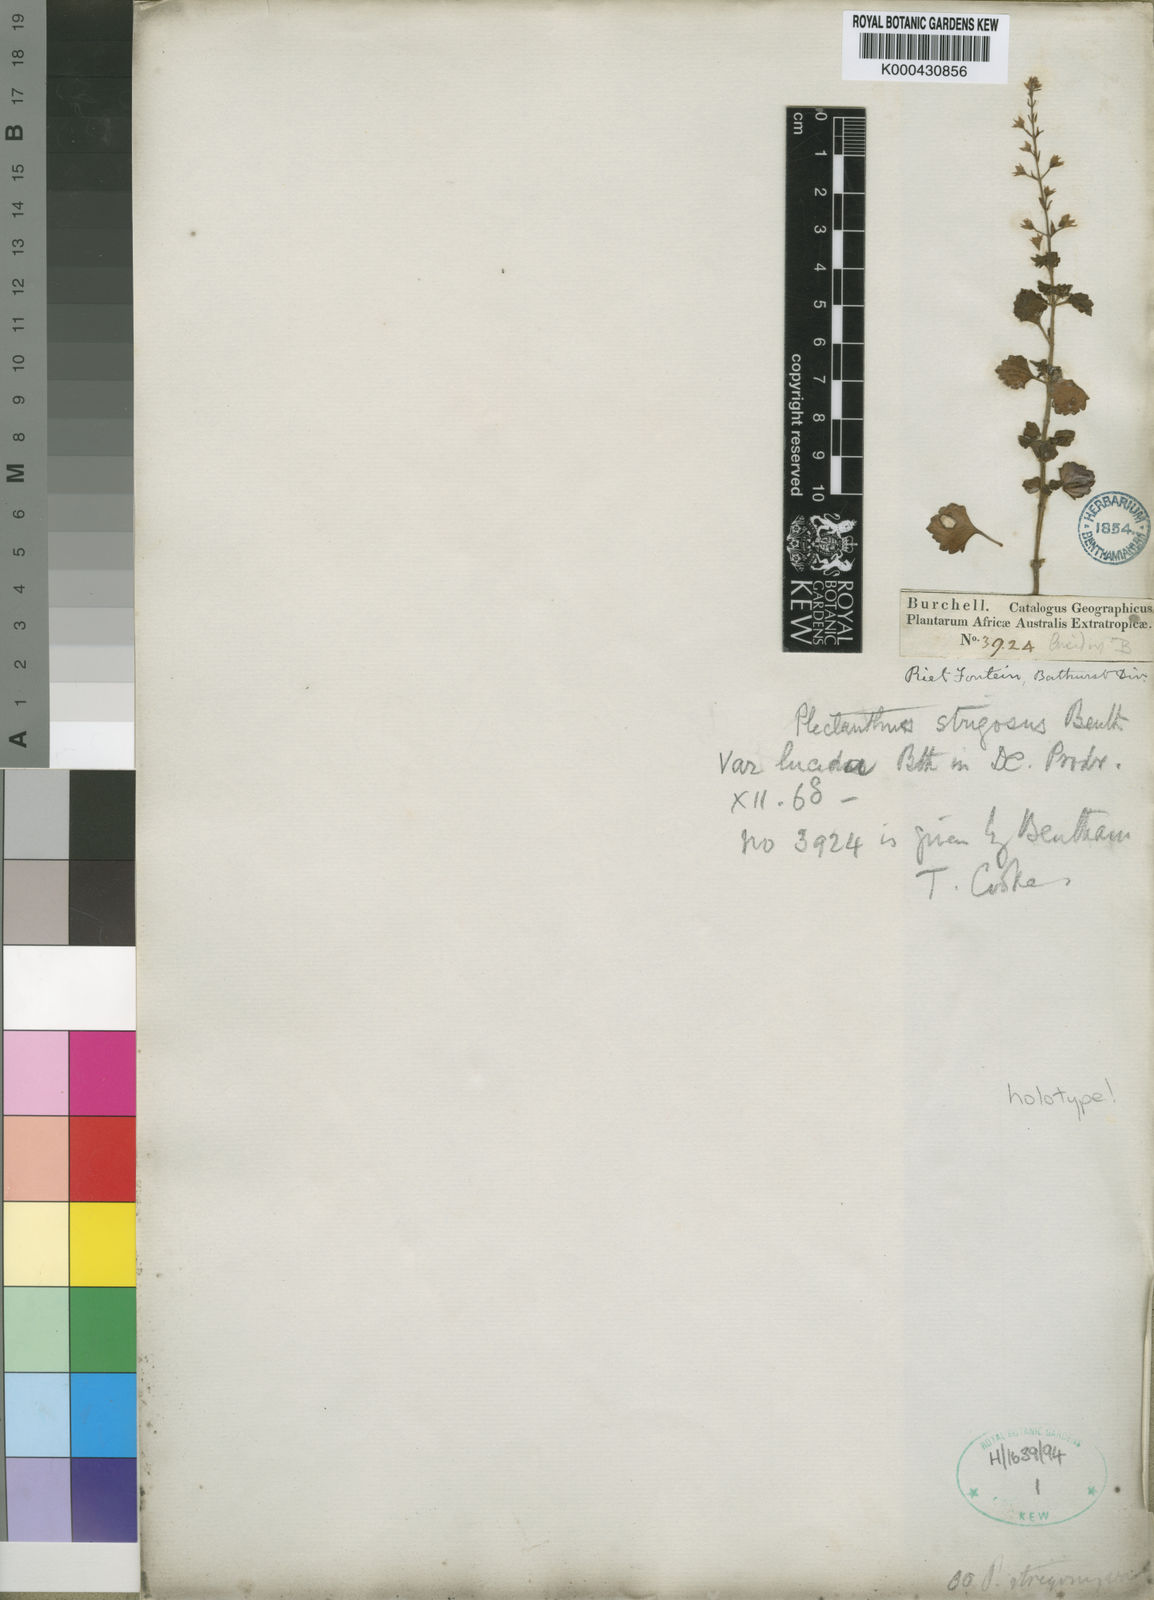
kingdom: Plantae
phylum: Tracheophyta
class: Magnoliopsida
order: Lamiales
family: Lamiaceae
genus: Plectranthus
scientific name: Plectranthus
